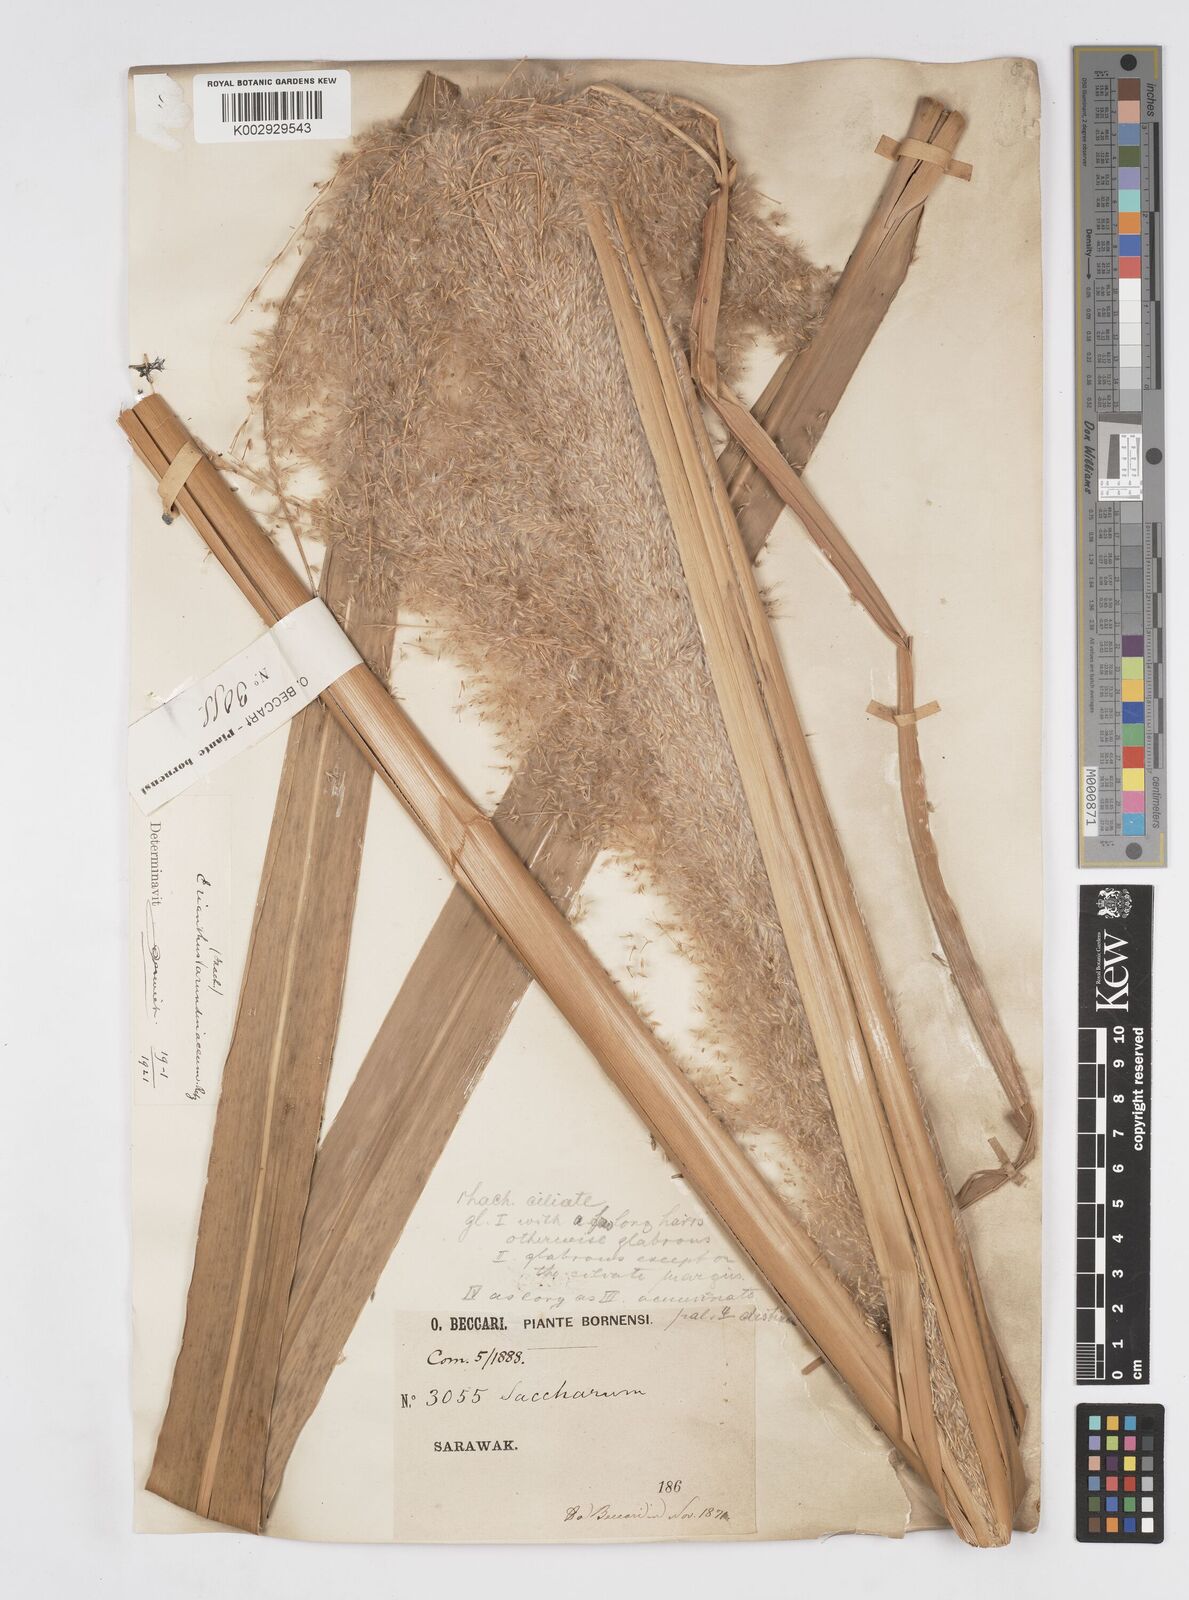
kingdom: Plantae
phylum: Tracheophyta
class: Liliopsida
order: Poales
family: Poaceae
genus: Tripidium
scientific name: Tripidium arundinaceum
